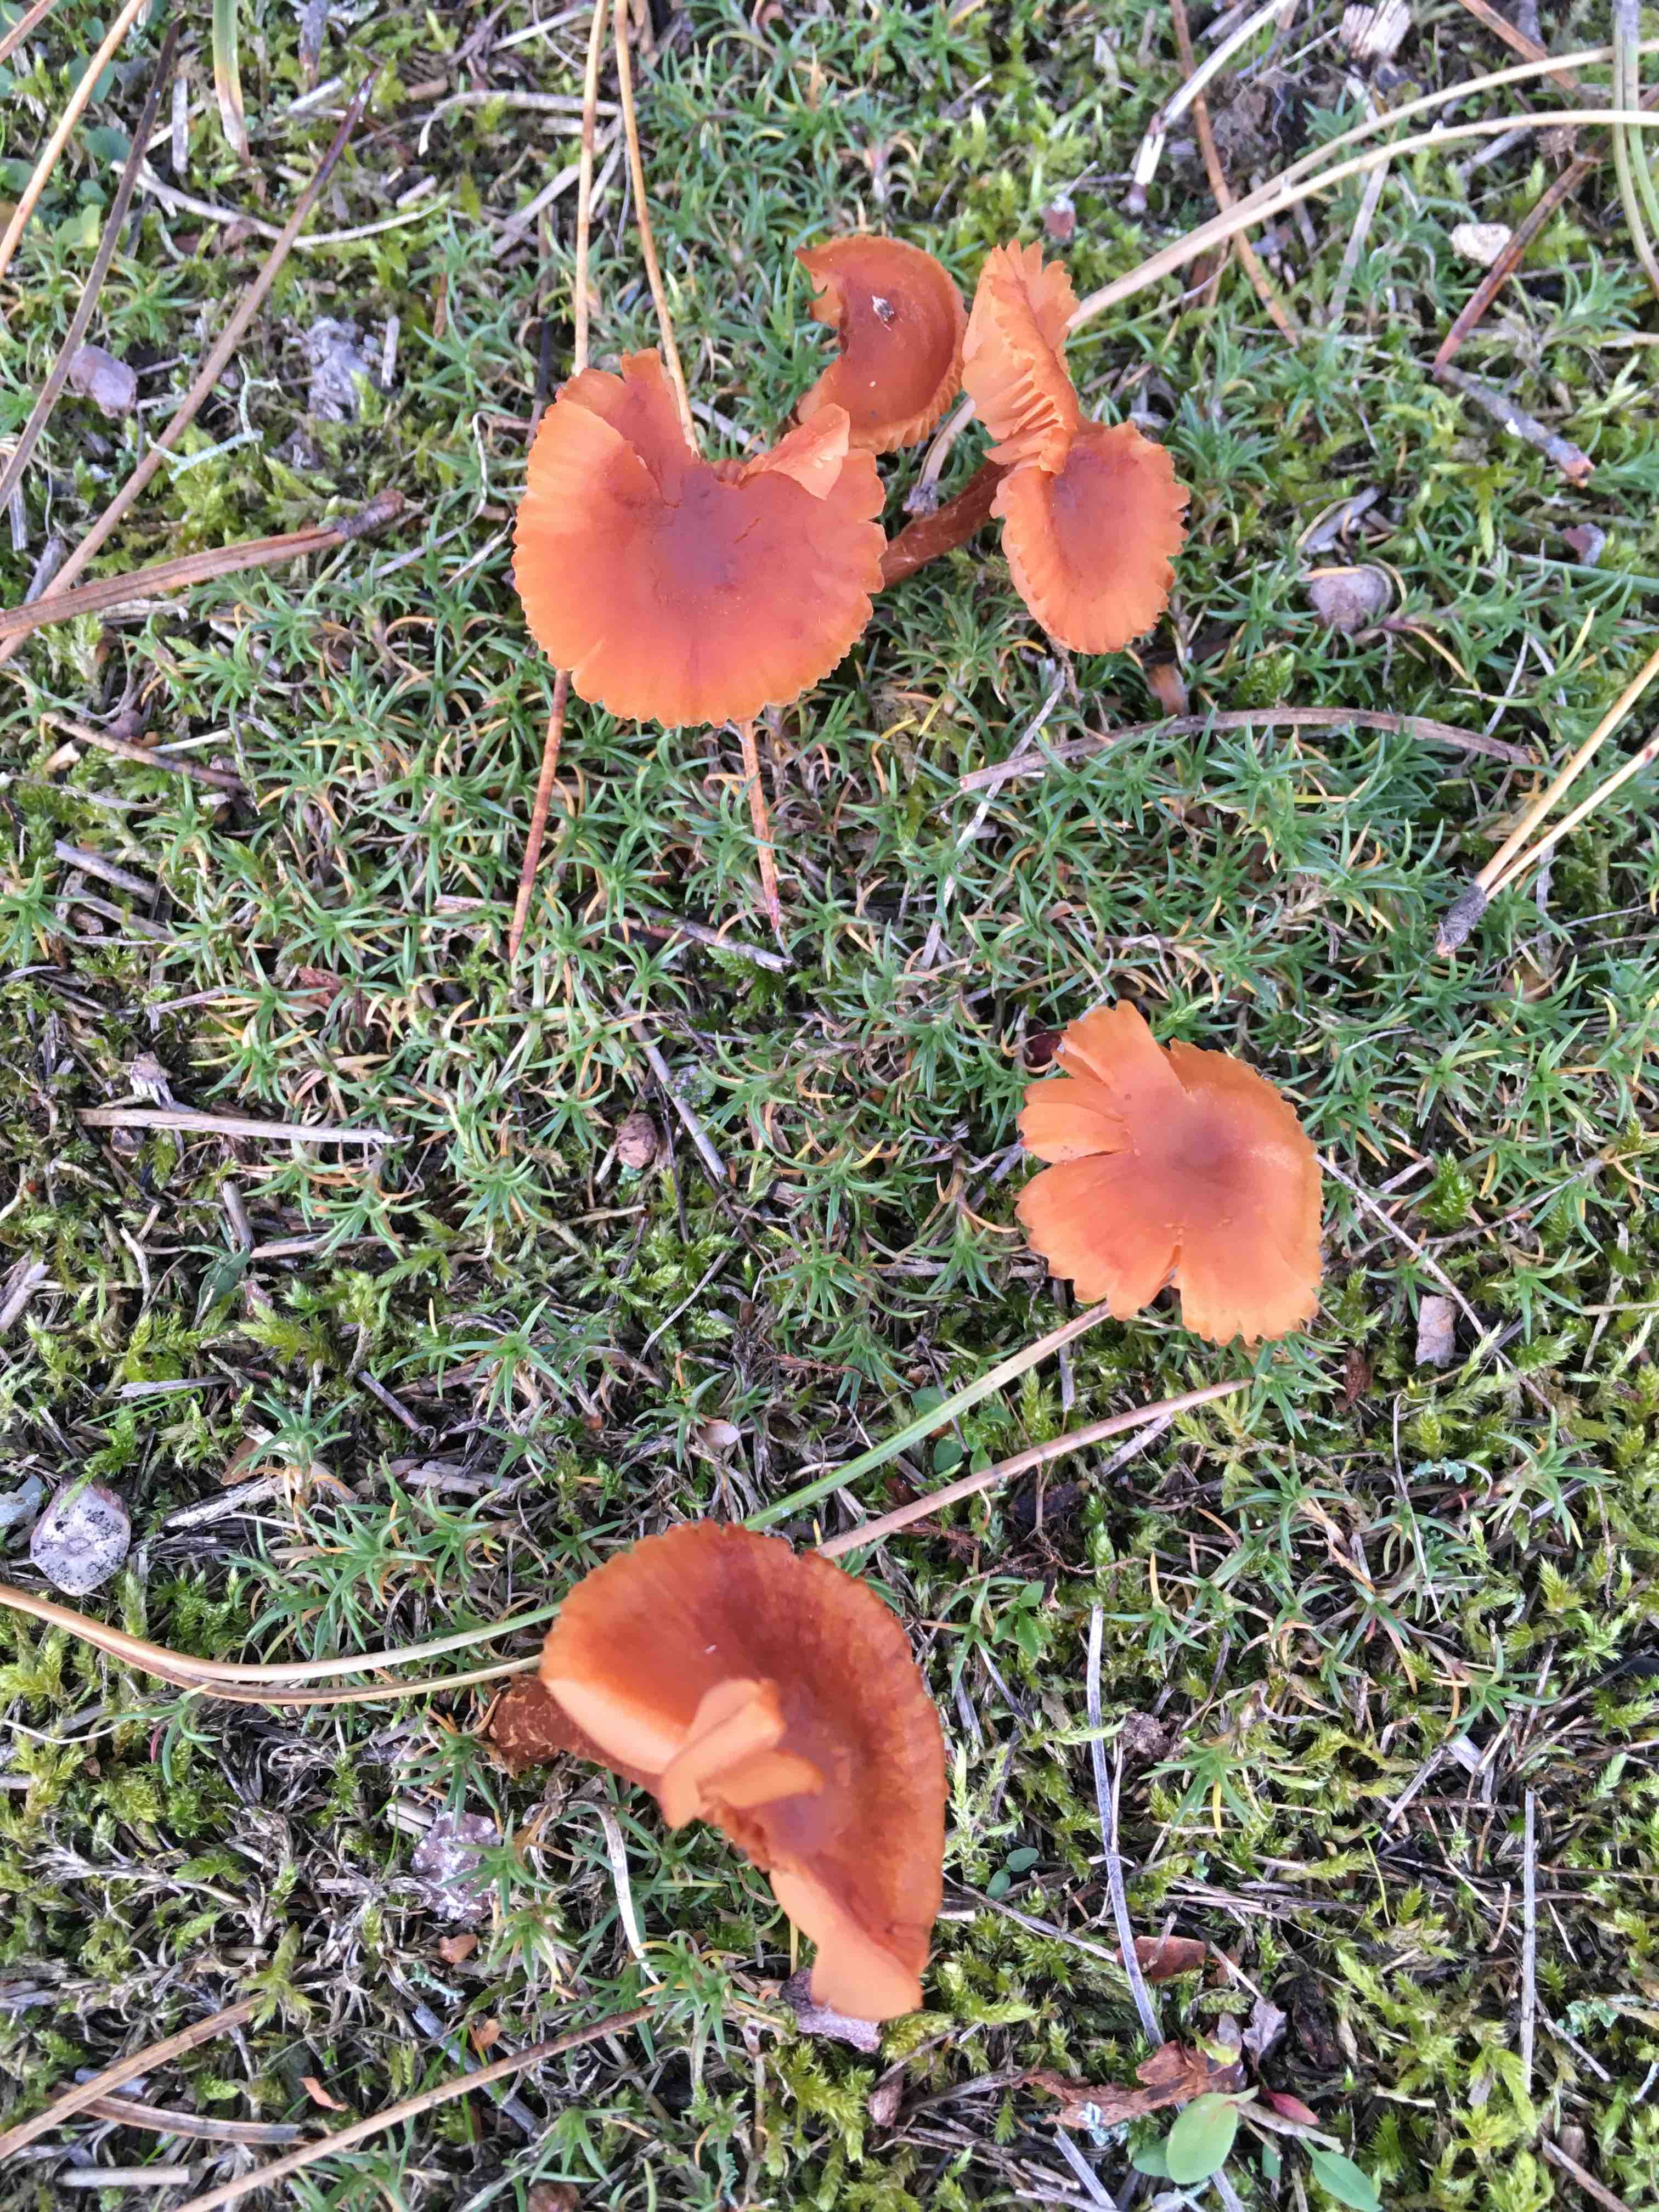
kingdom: Fungi
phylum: Basidiomycota
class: Agaricomycetes
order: Agaricales
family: Hydnangiaceae
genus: Laccaria
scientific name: Laccaria laccata
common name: rød ametysthat
